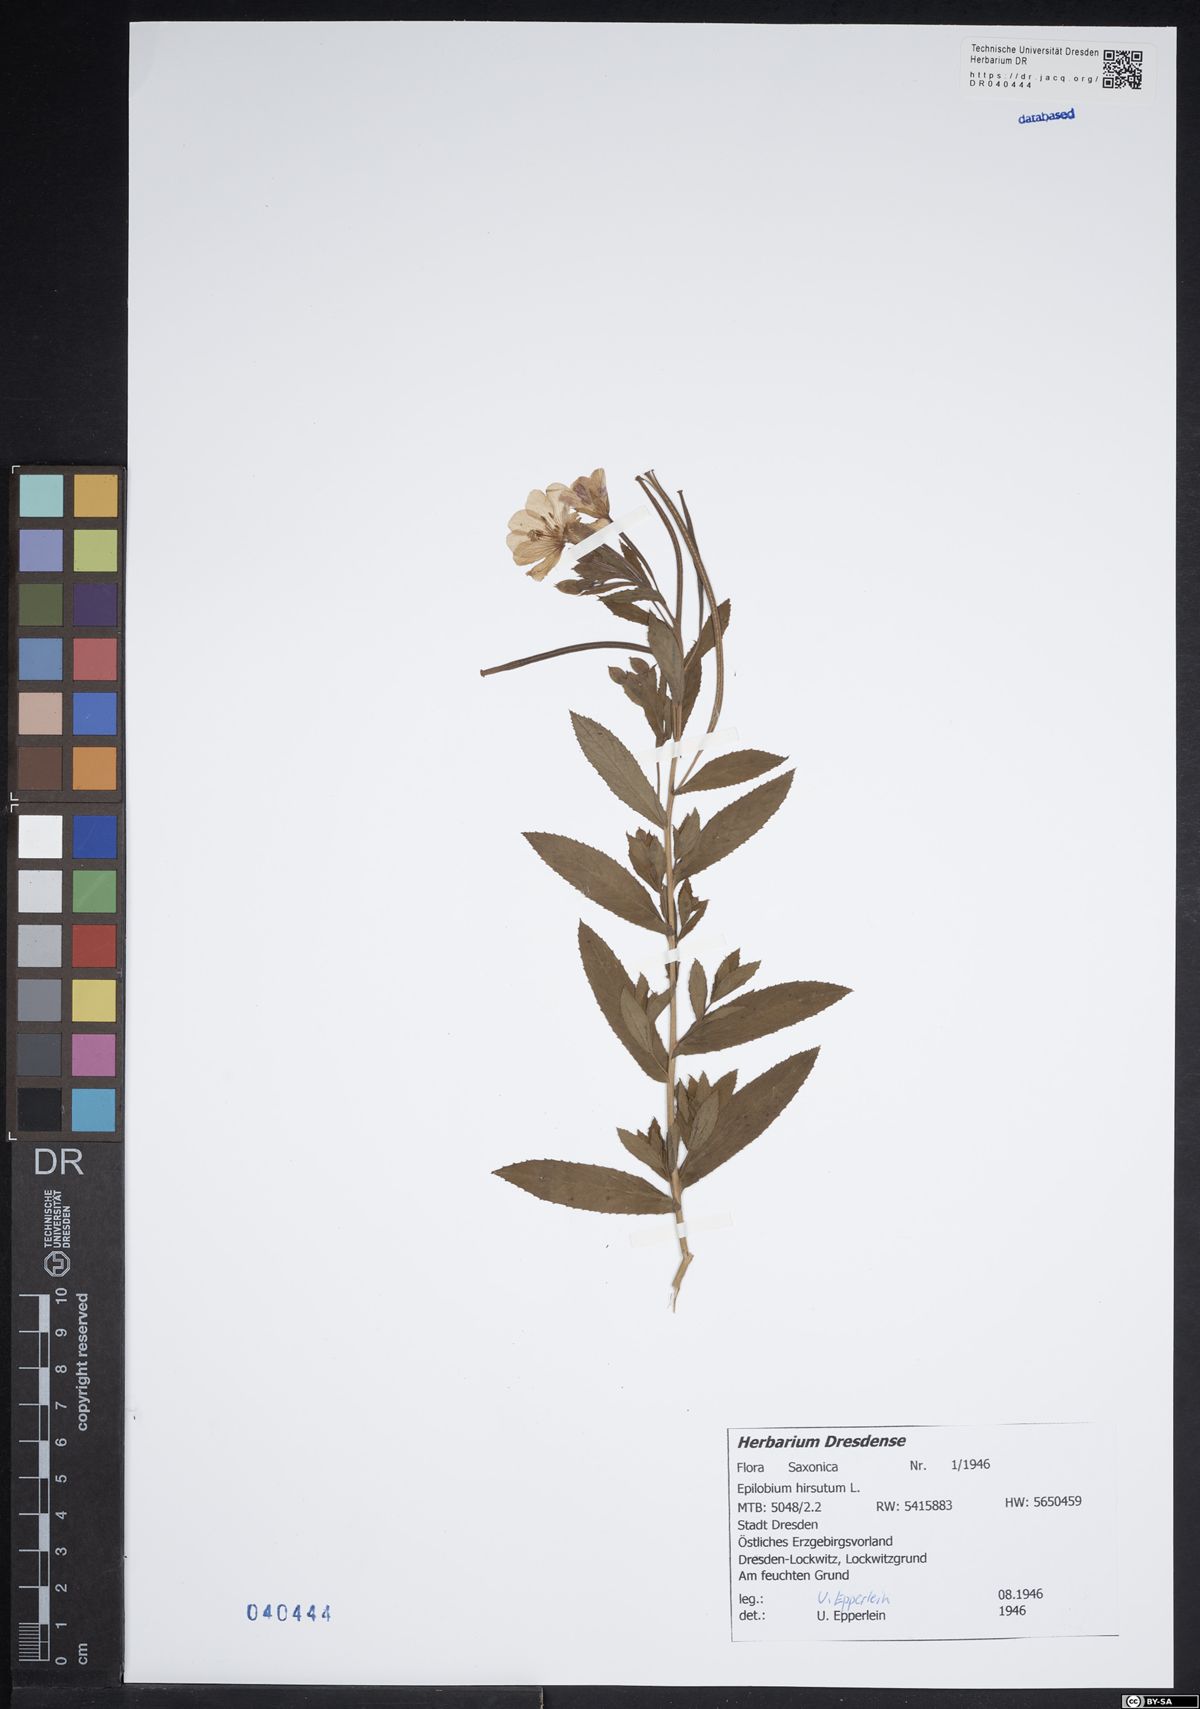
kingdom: Plantae
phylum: Tracheophyta
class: Magnoliopsida
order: Myrtales
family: Onagraceae
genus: Epilobium
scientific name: Epilobium hirsutum
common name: Great willowherb
